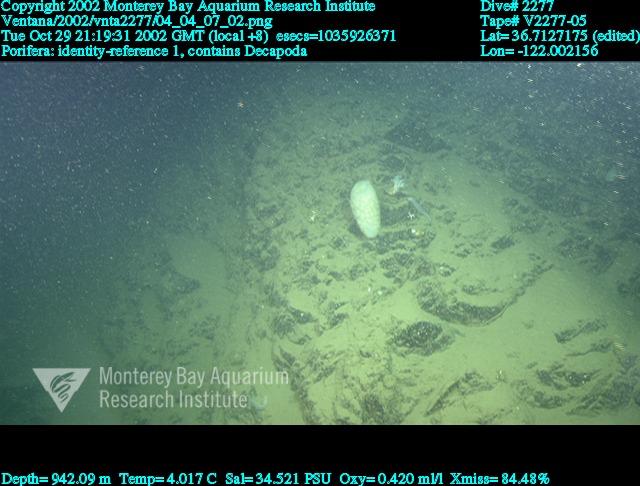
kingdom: Animalia
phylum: Porifera
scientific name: Porifera
